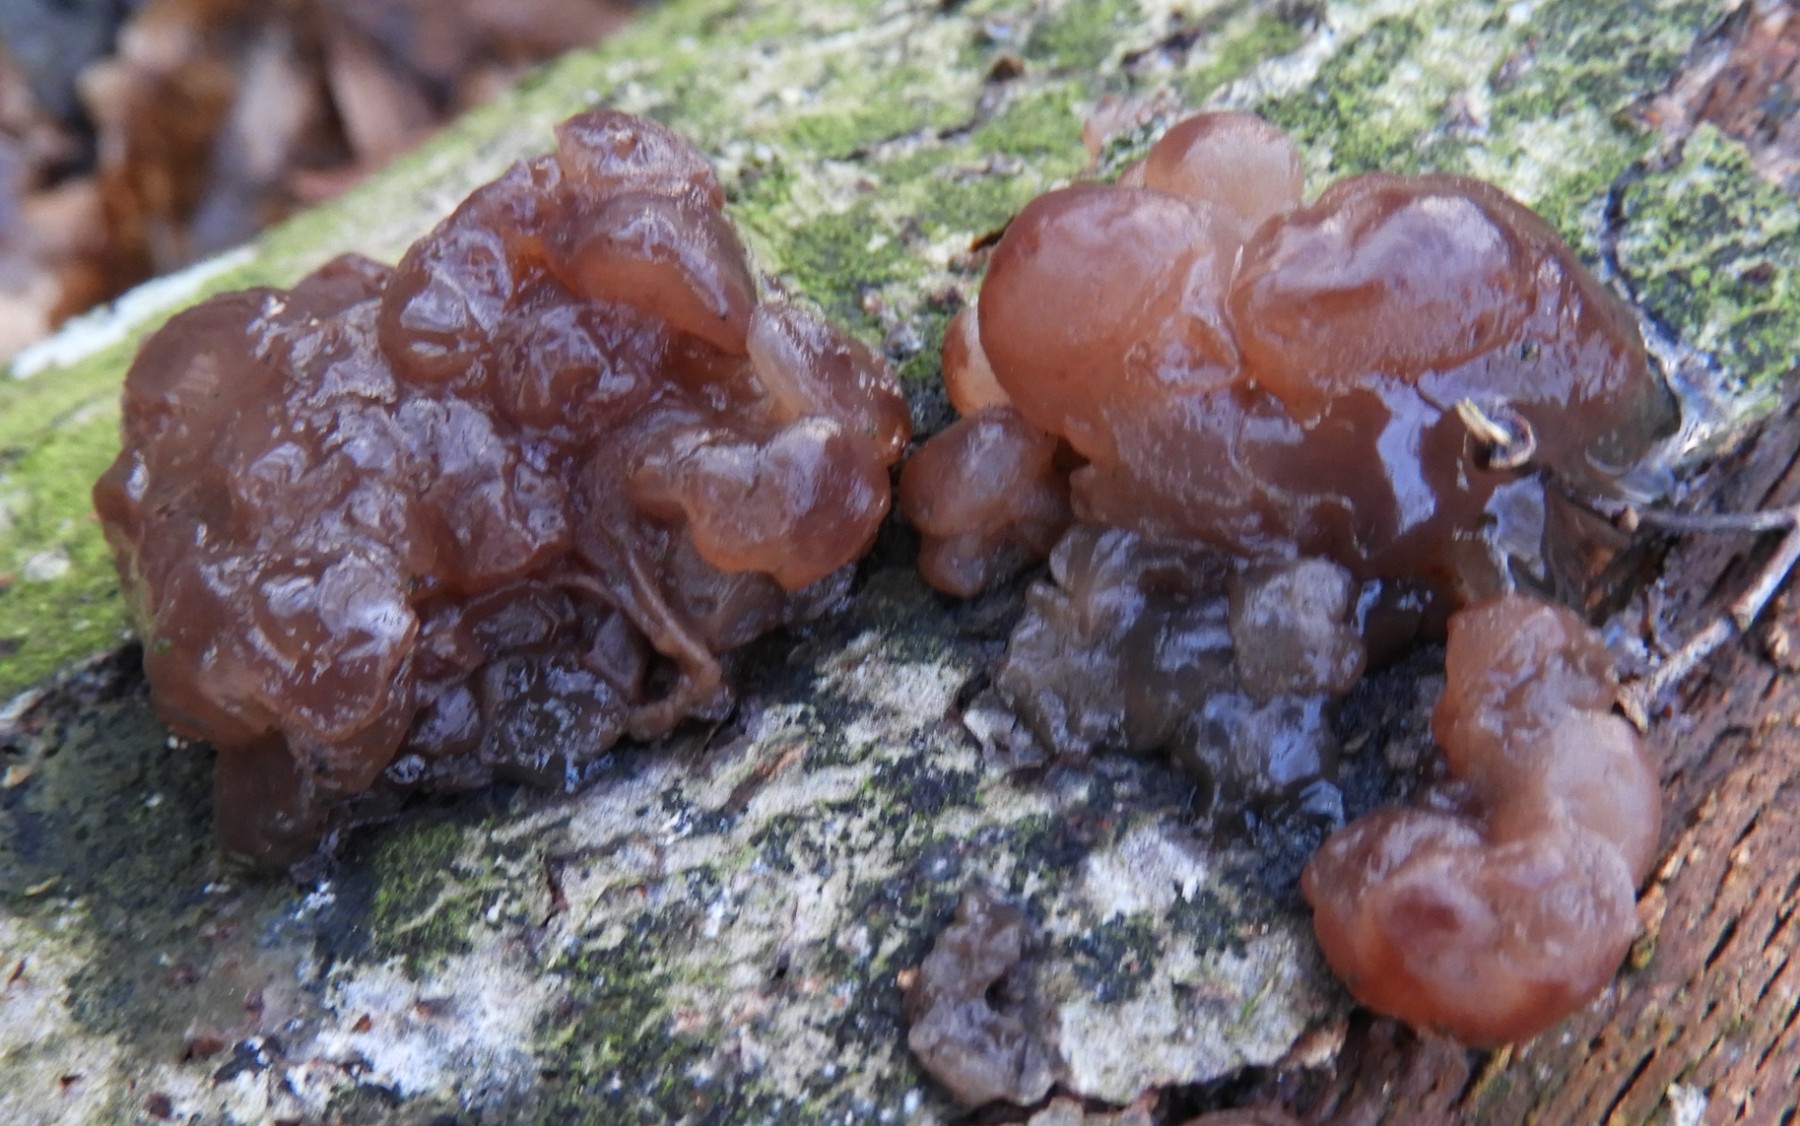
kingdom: Fungi
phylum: Ascomycota
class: Leotiomycetes
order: Helotiales
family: Gelatinodiscaceae
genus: Ascotremella
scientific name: Ascotremella faginea
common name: hjerne-bævreskive
